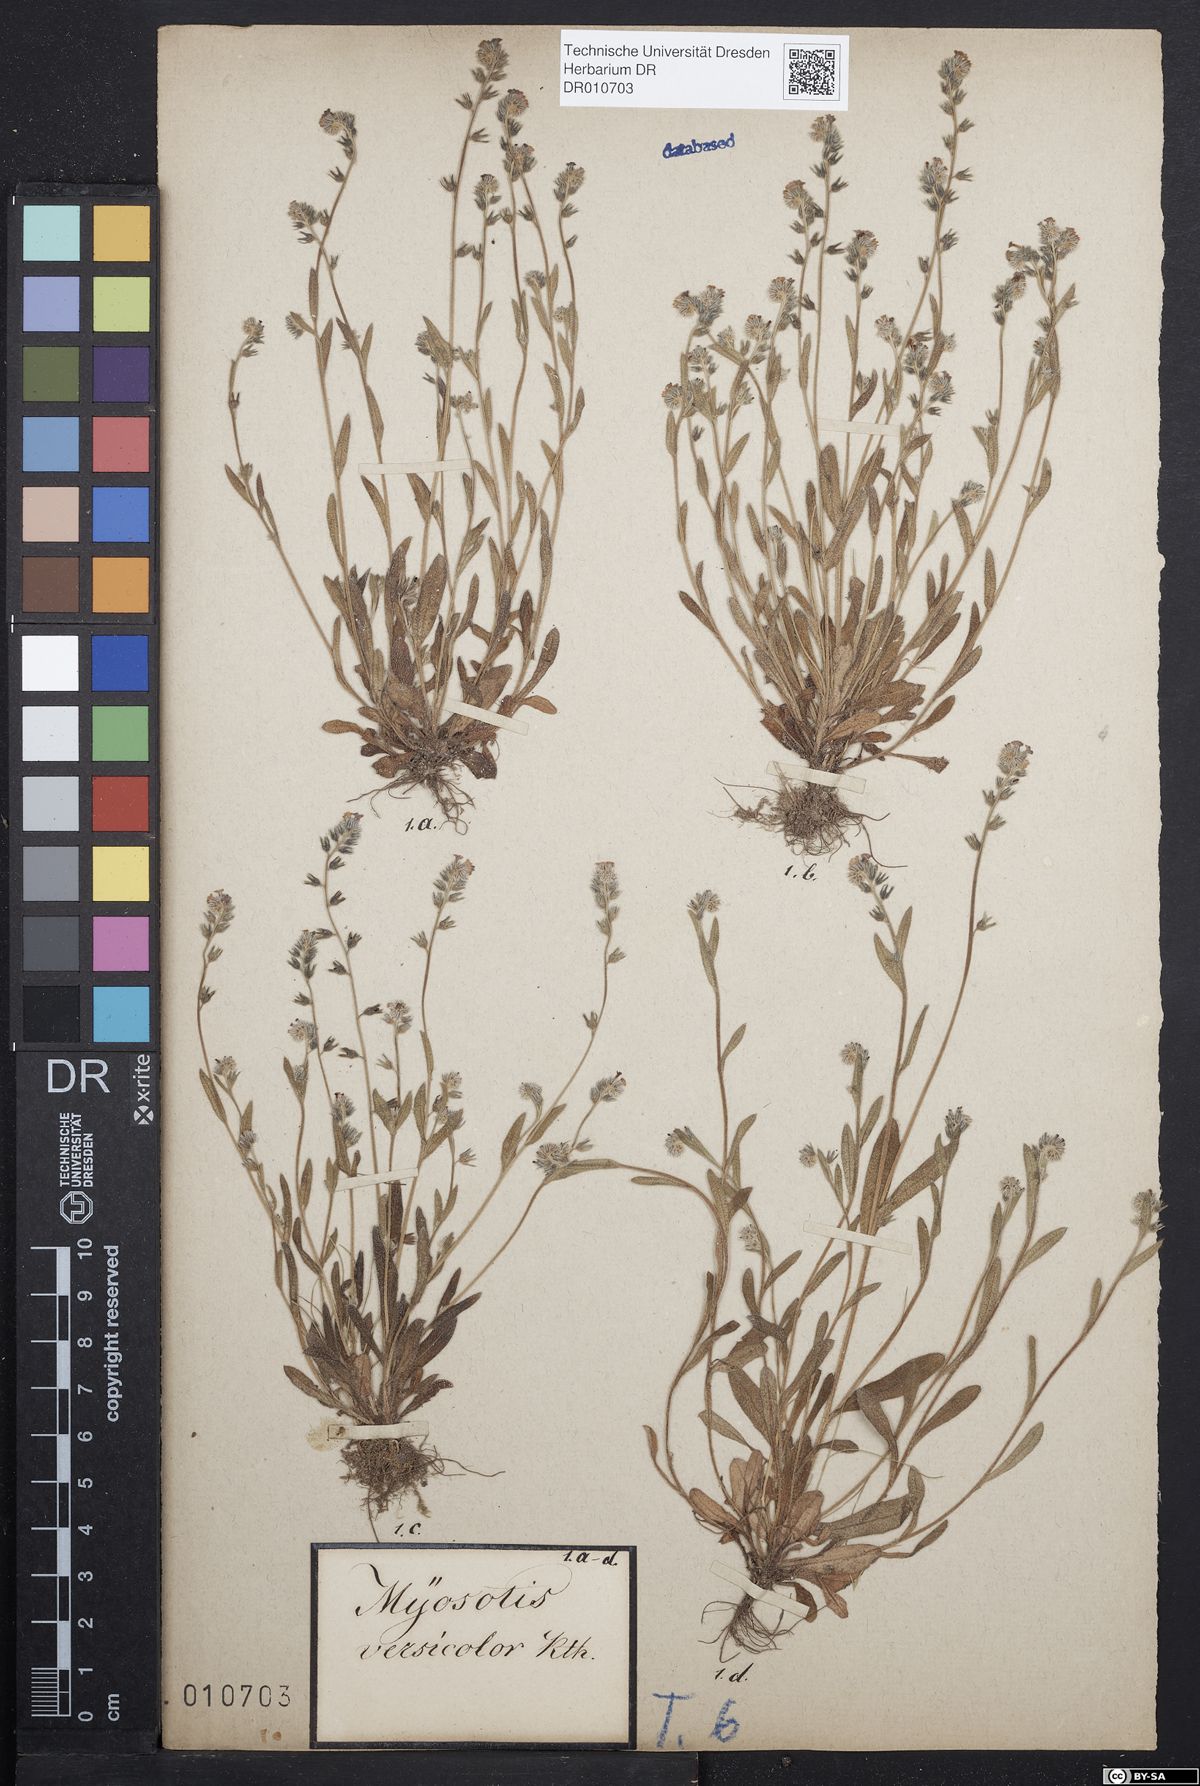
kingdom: Plantae
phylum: Tracheophyta
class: Magnoliopsida
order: Boraginales
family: Boraginaceae
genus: Myosotis
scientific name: Myosotis discolor
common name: Changing forget-me-not
